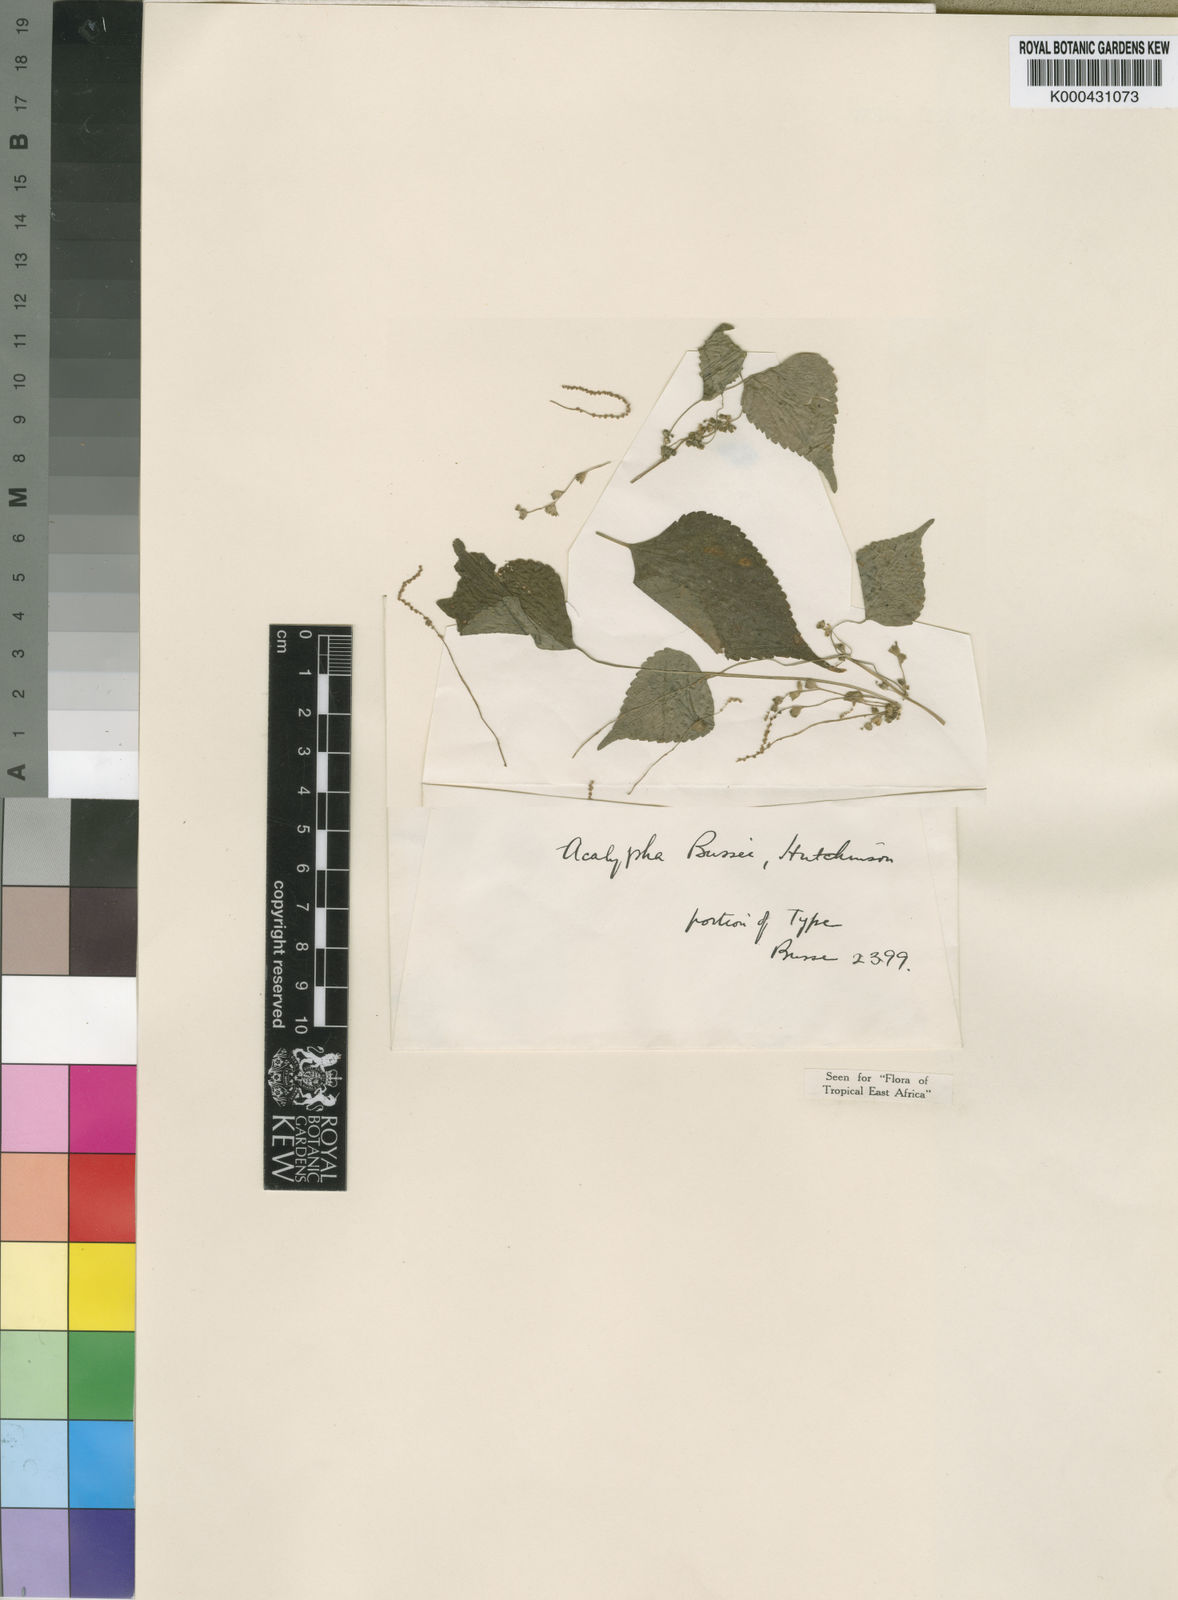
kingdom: Plantae
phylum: Tracheophyta
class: Magnoliopsida
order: Malpighiales
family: Euphorbiaceae
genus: Acalypha
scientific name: Acalypha bussei
